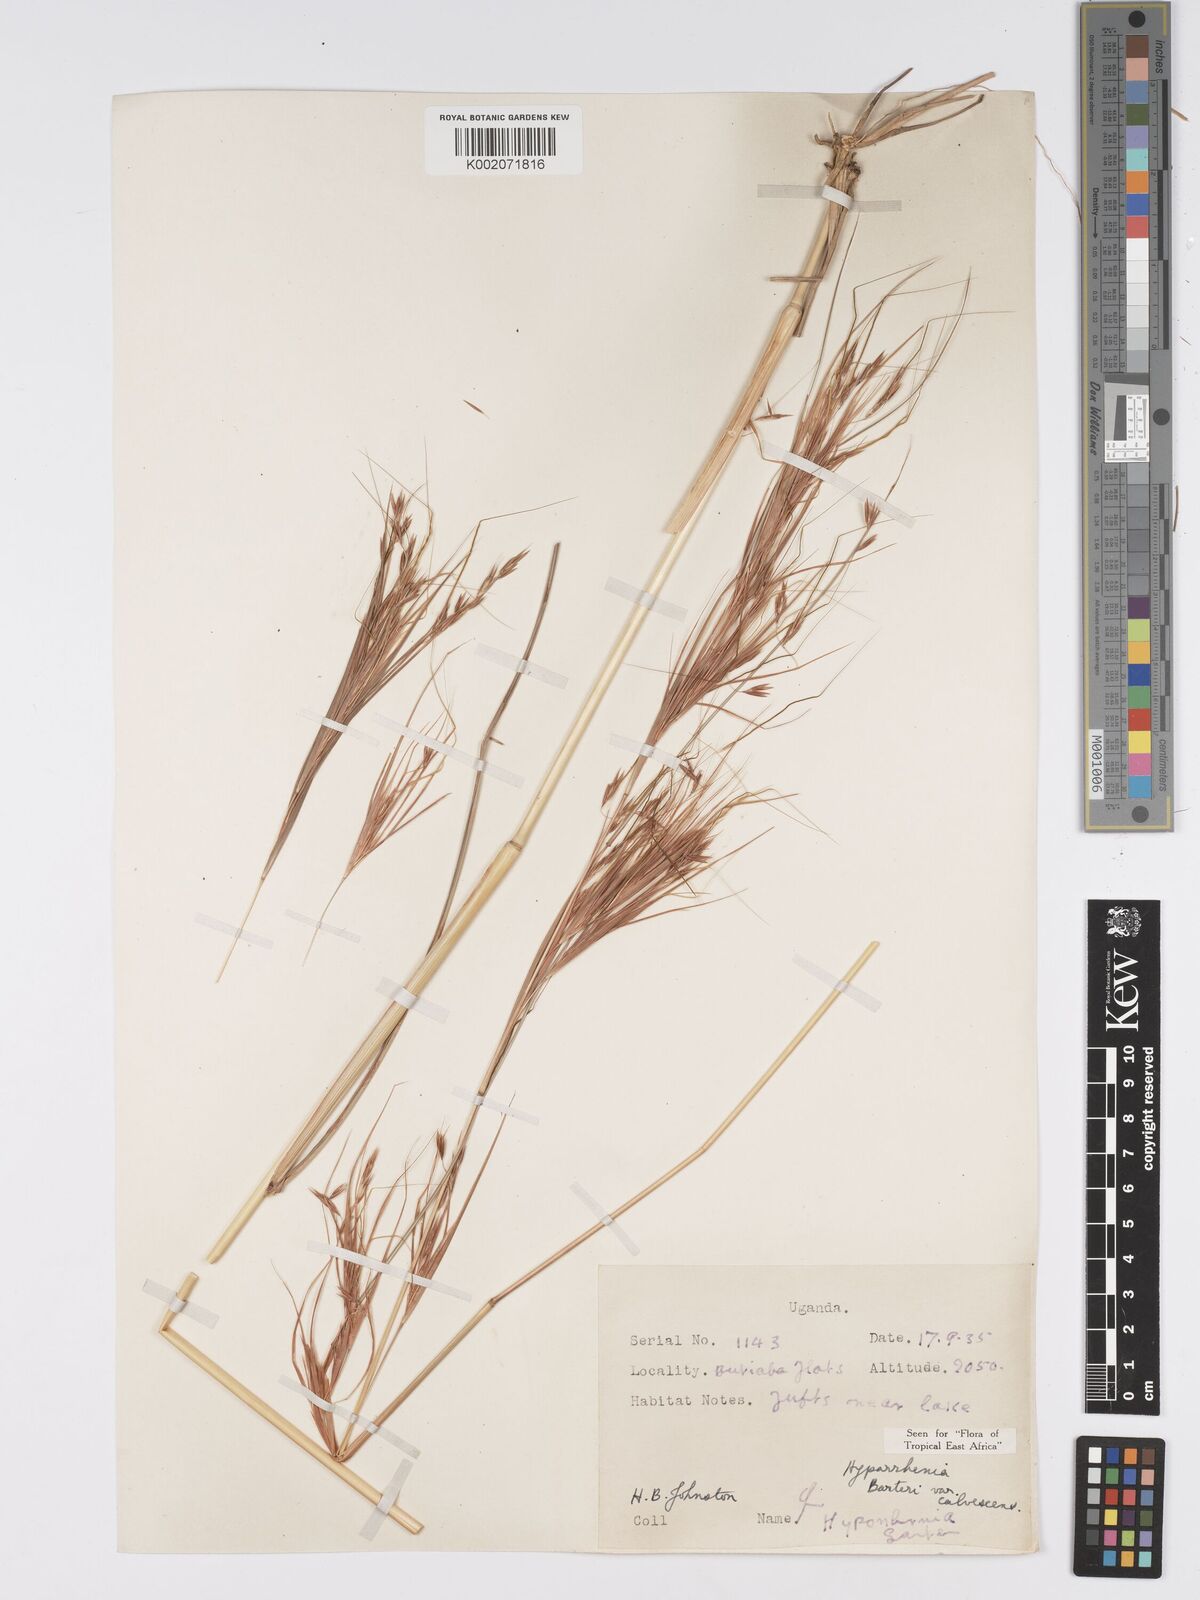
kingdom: Plantae
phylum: Tracheophyta
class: Liliopsida
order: Poales
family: Poaceae
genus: Hyparrhenia
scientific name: Hyparrhenia figariana
